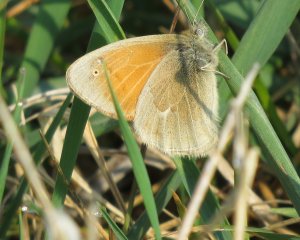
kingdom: Animalia
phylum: Arthropoda
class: Insecta
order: Lepidoptera
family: Nymphalidae
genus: Coenonympha
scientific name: Coenonympha tullia
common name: Large Heath
